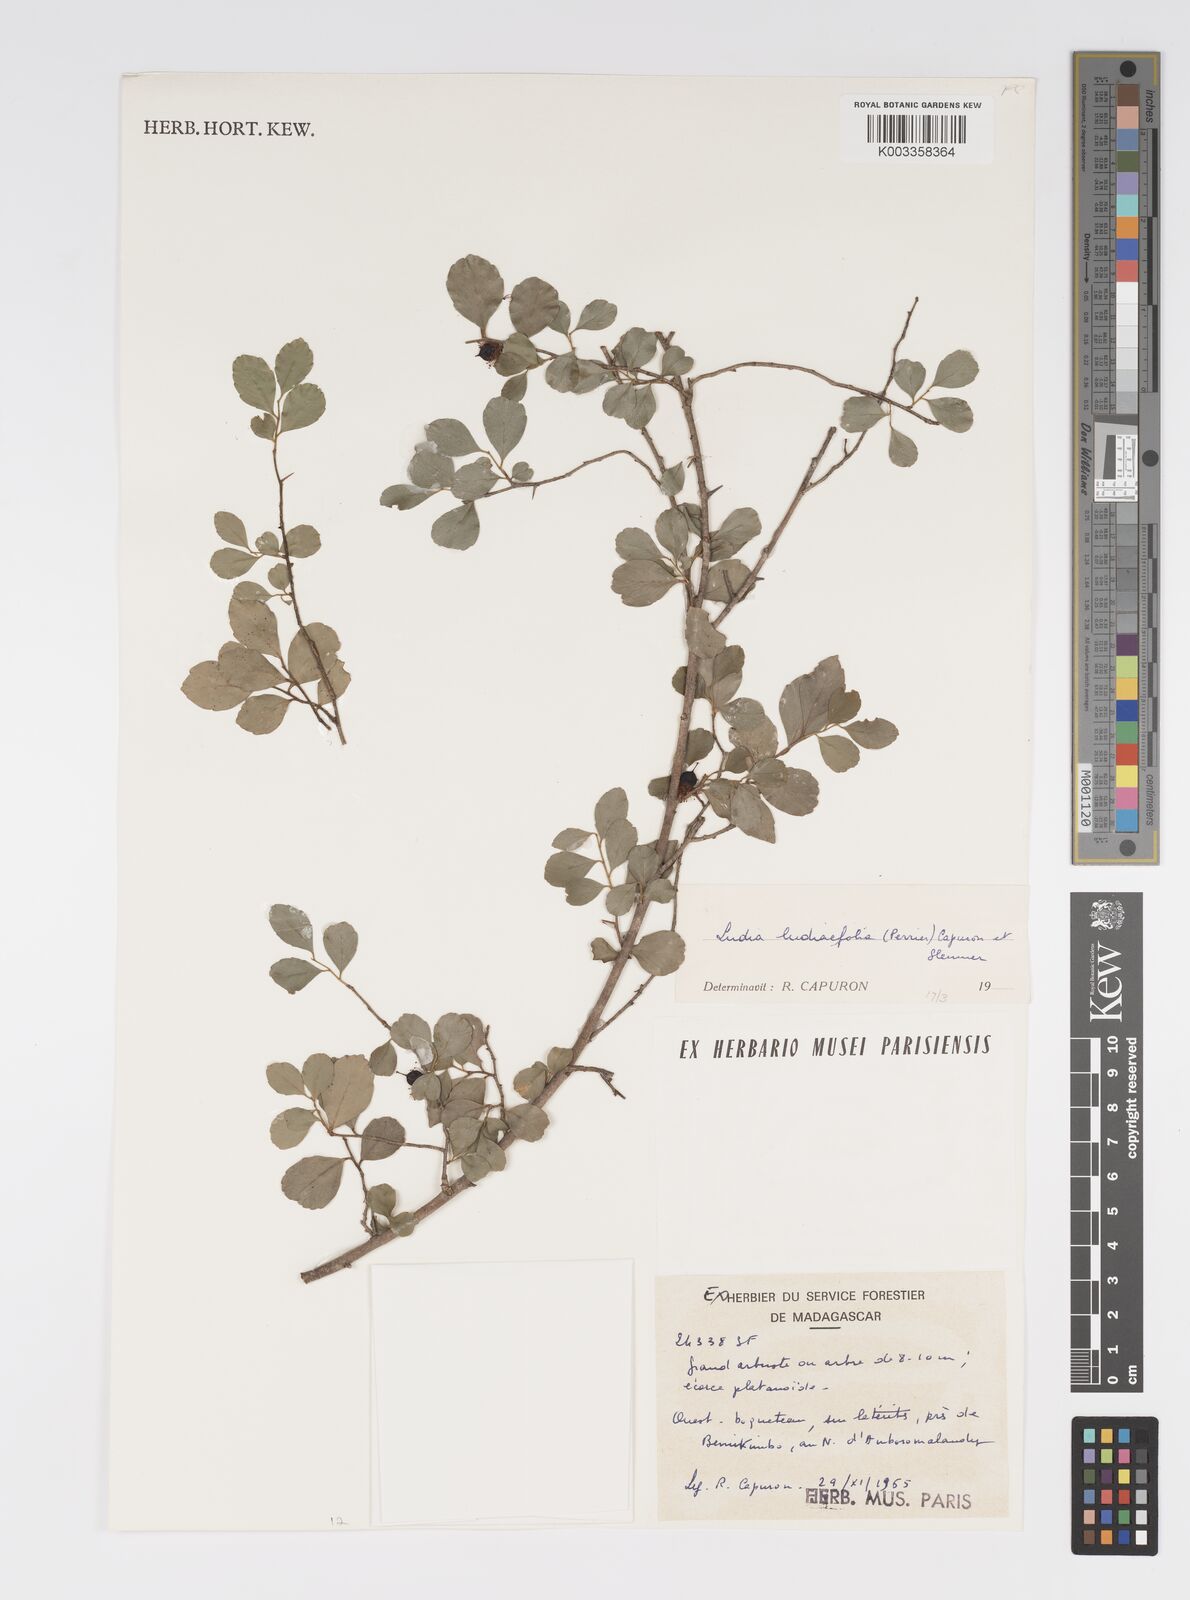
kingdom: Plantae
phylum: Tracheophyta
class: Magnoliopsida
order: Malpighiales
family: Salicaceae
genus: Ludia
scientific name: Ludia
